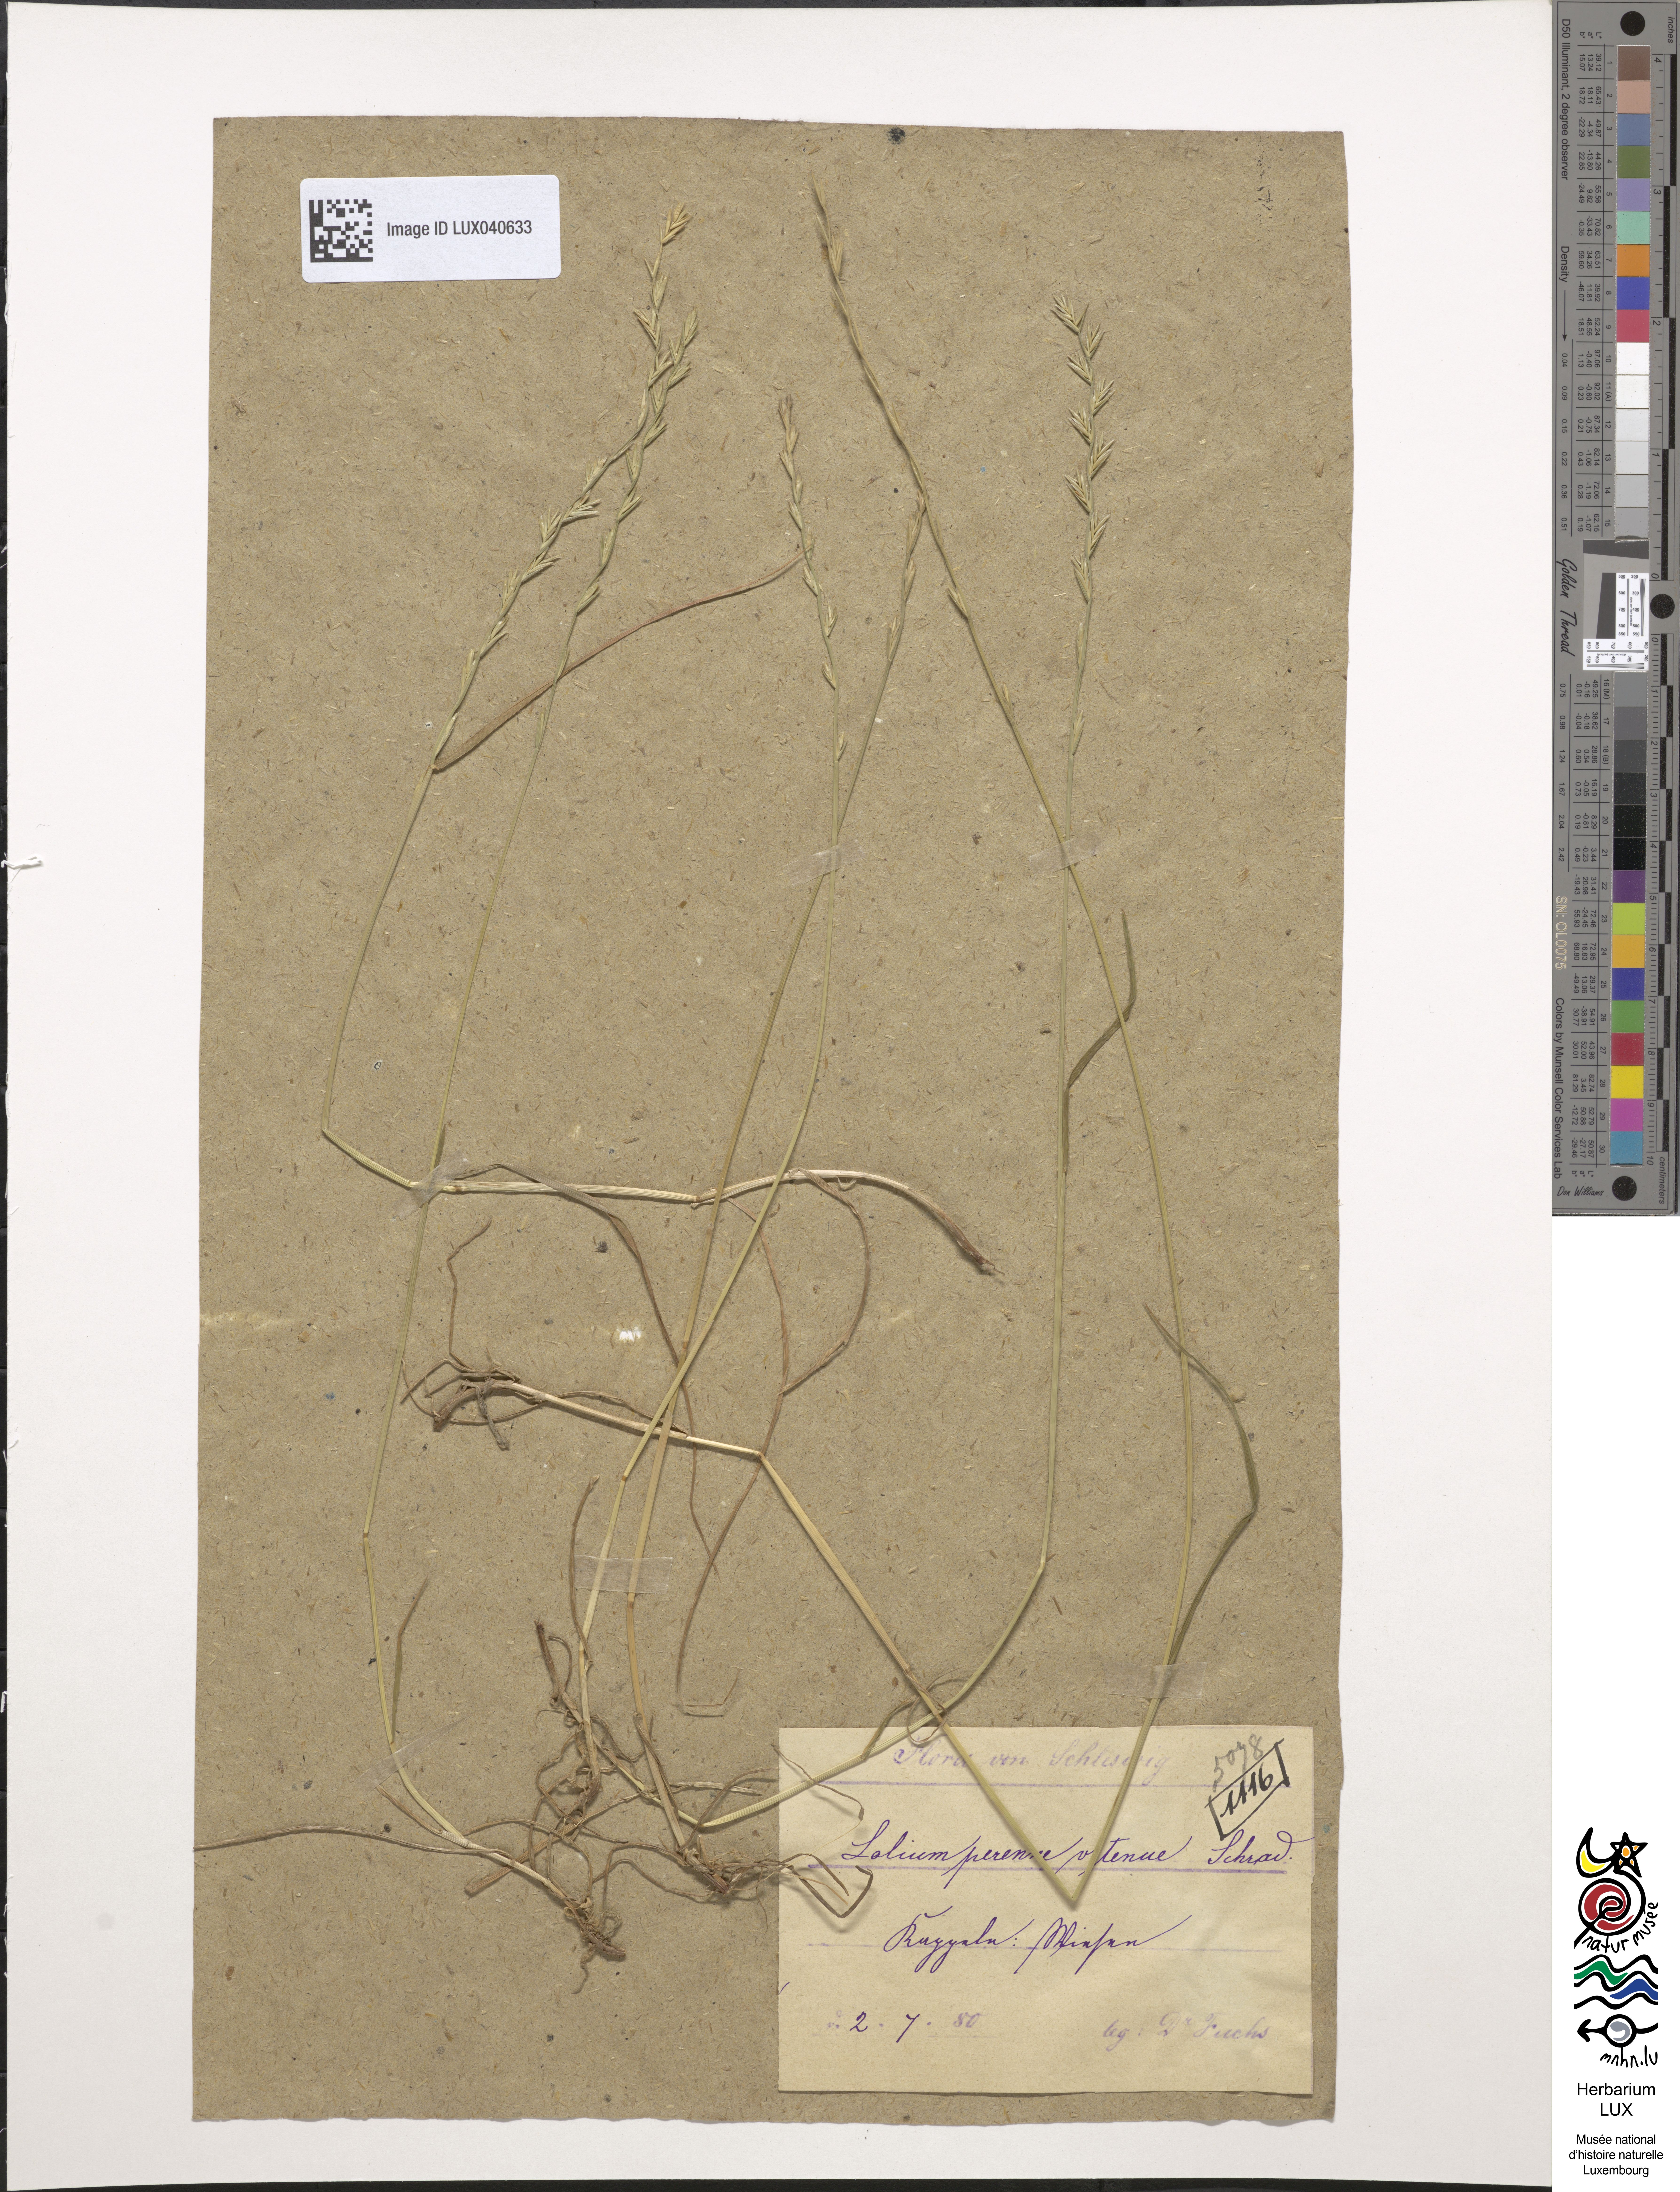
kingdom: Plantae
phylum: Tracheophyta
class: Liliopsida
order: Poales
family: Poaceae
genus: Lolium
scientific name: Lolium perenne
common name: Perennial ryegrass
